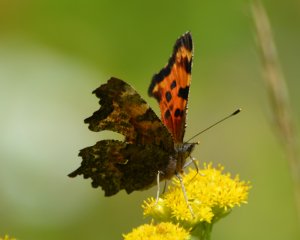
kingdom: Animalia
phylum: Arthropoda
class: Insecta
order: Lepidoptera
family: Nymphalidae
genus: Polygonia
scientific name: Polygonia faunus
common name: Green Comma
